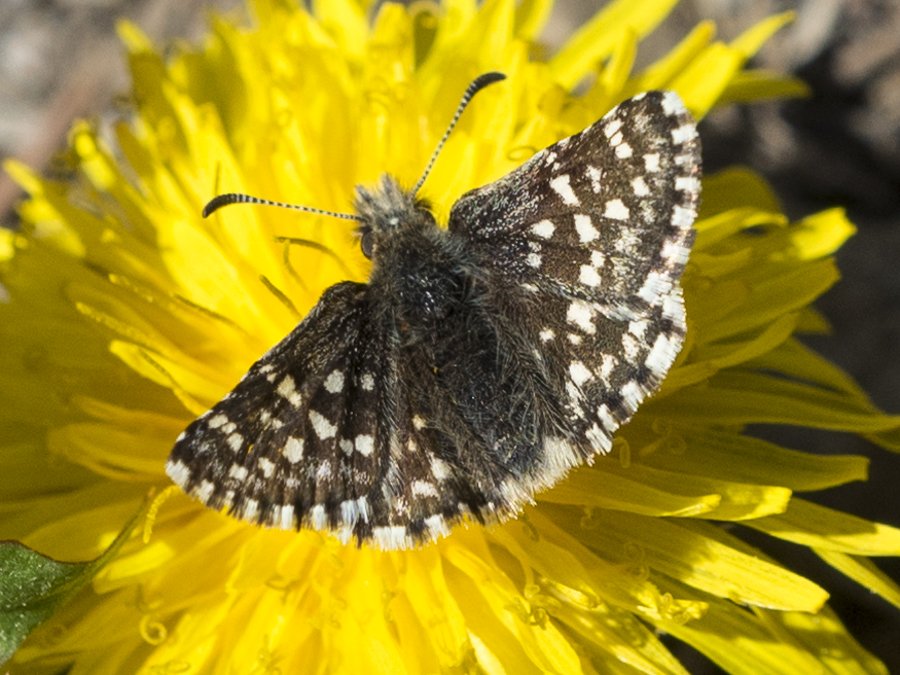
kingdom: Animalia
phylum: Arthropoda
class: Insecta
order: Lepidoptera
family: Hesperiidae
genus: Pyrgus
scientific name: Pyrgus ruralis
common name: Two-banded Checkered-Skipper
